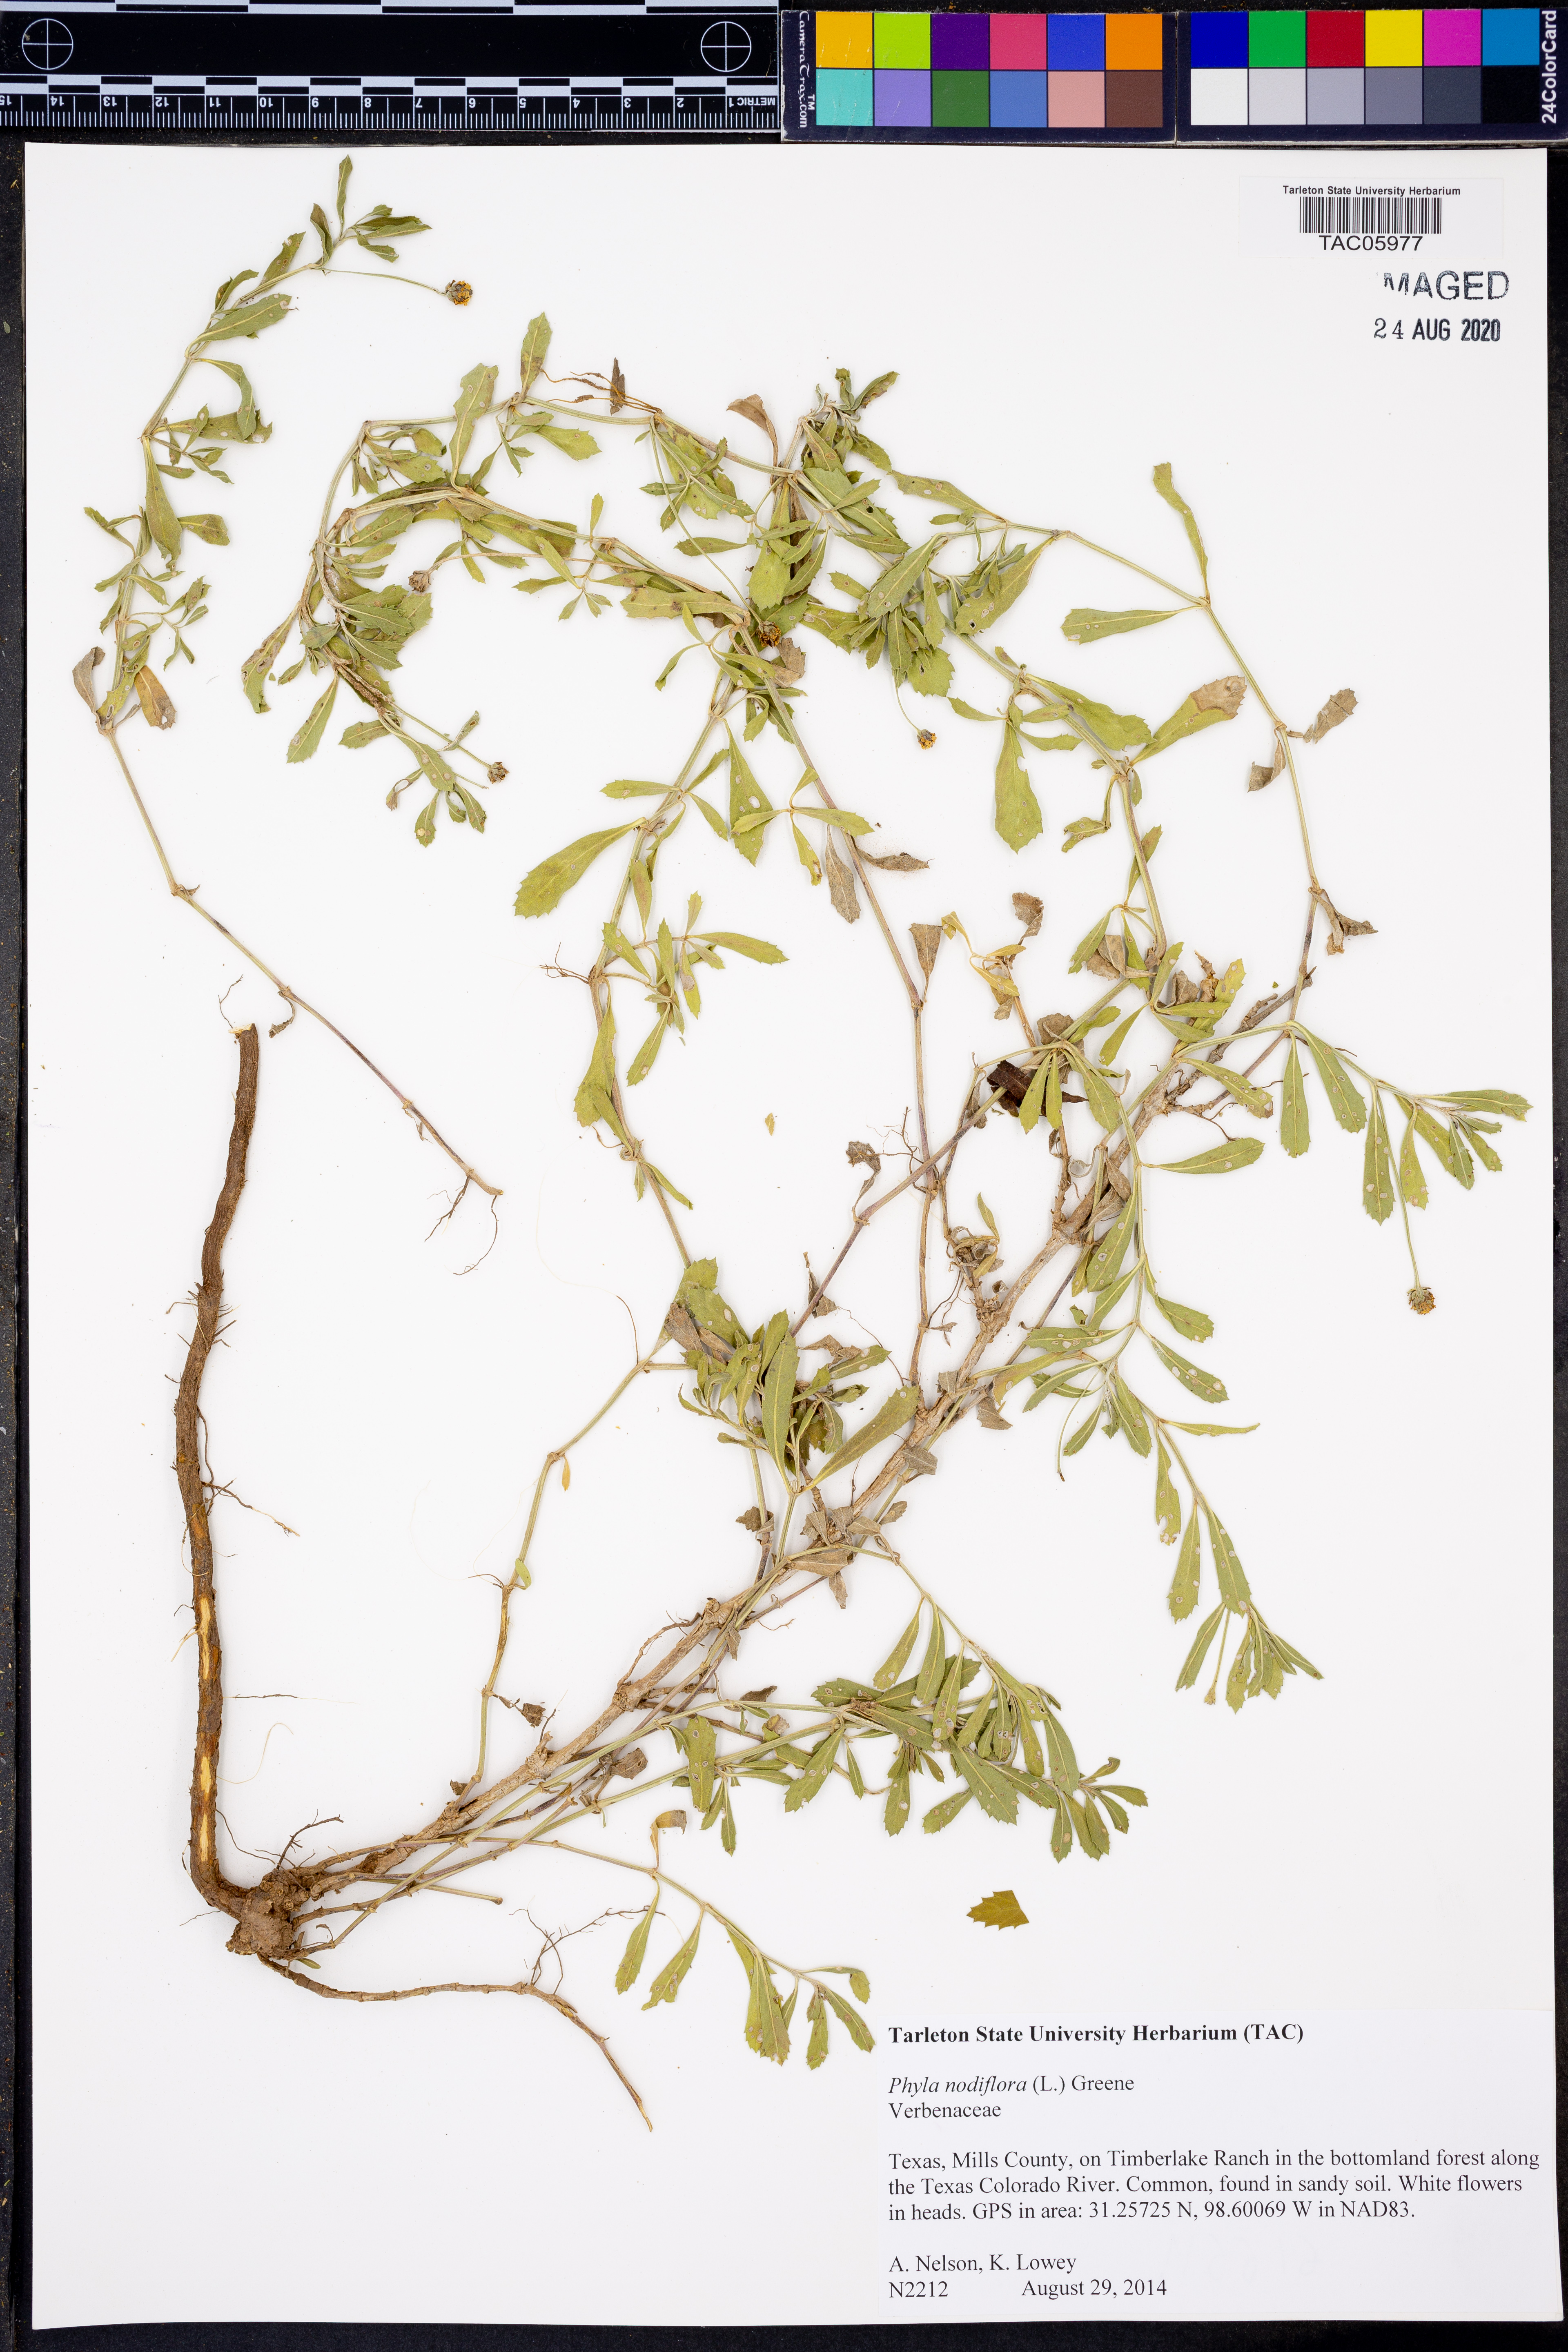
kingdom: Plantae
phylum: Tracheophyta
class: Magnoliopsida
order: Lamiales
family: Verbenaceae
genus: Phyla
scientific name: Phyla nodiflora
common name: Frogfruit
